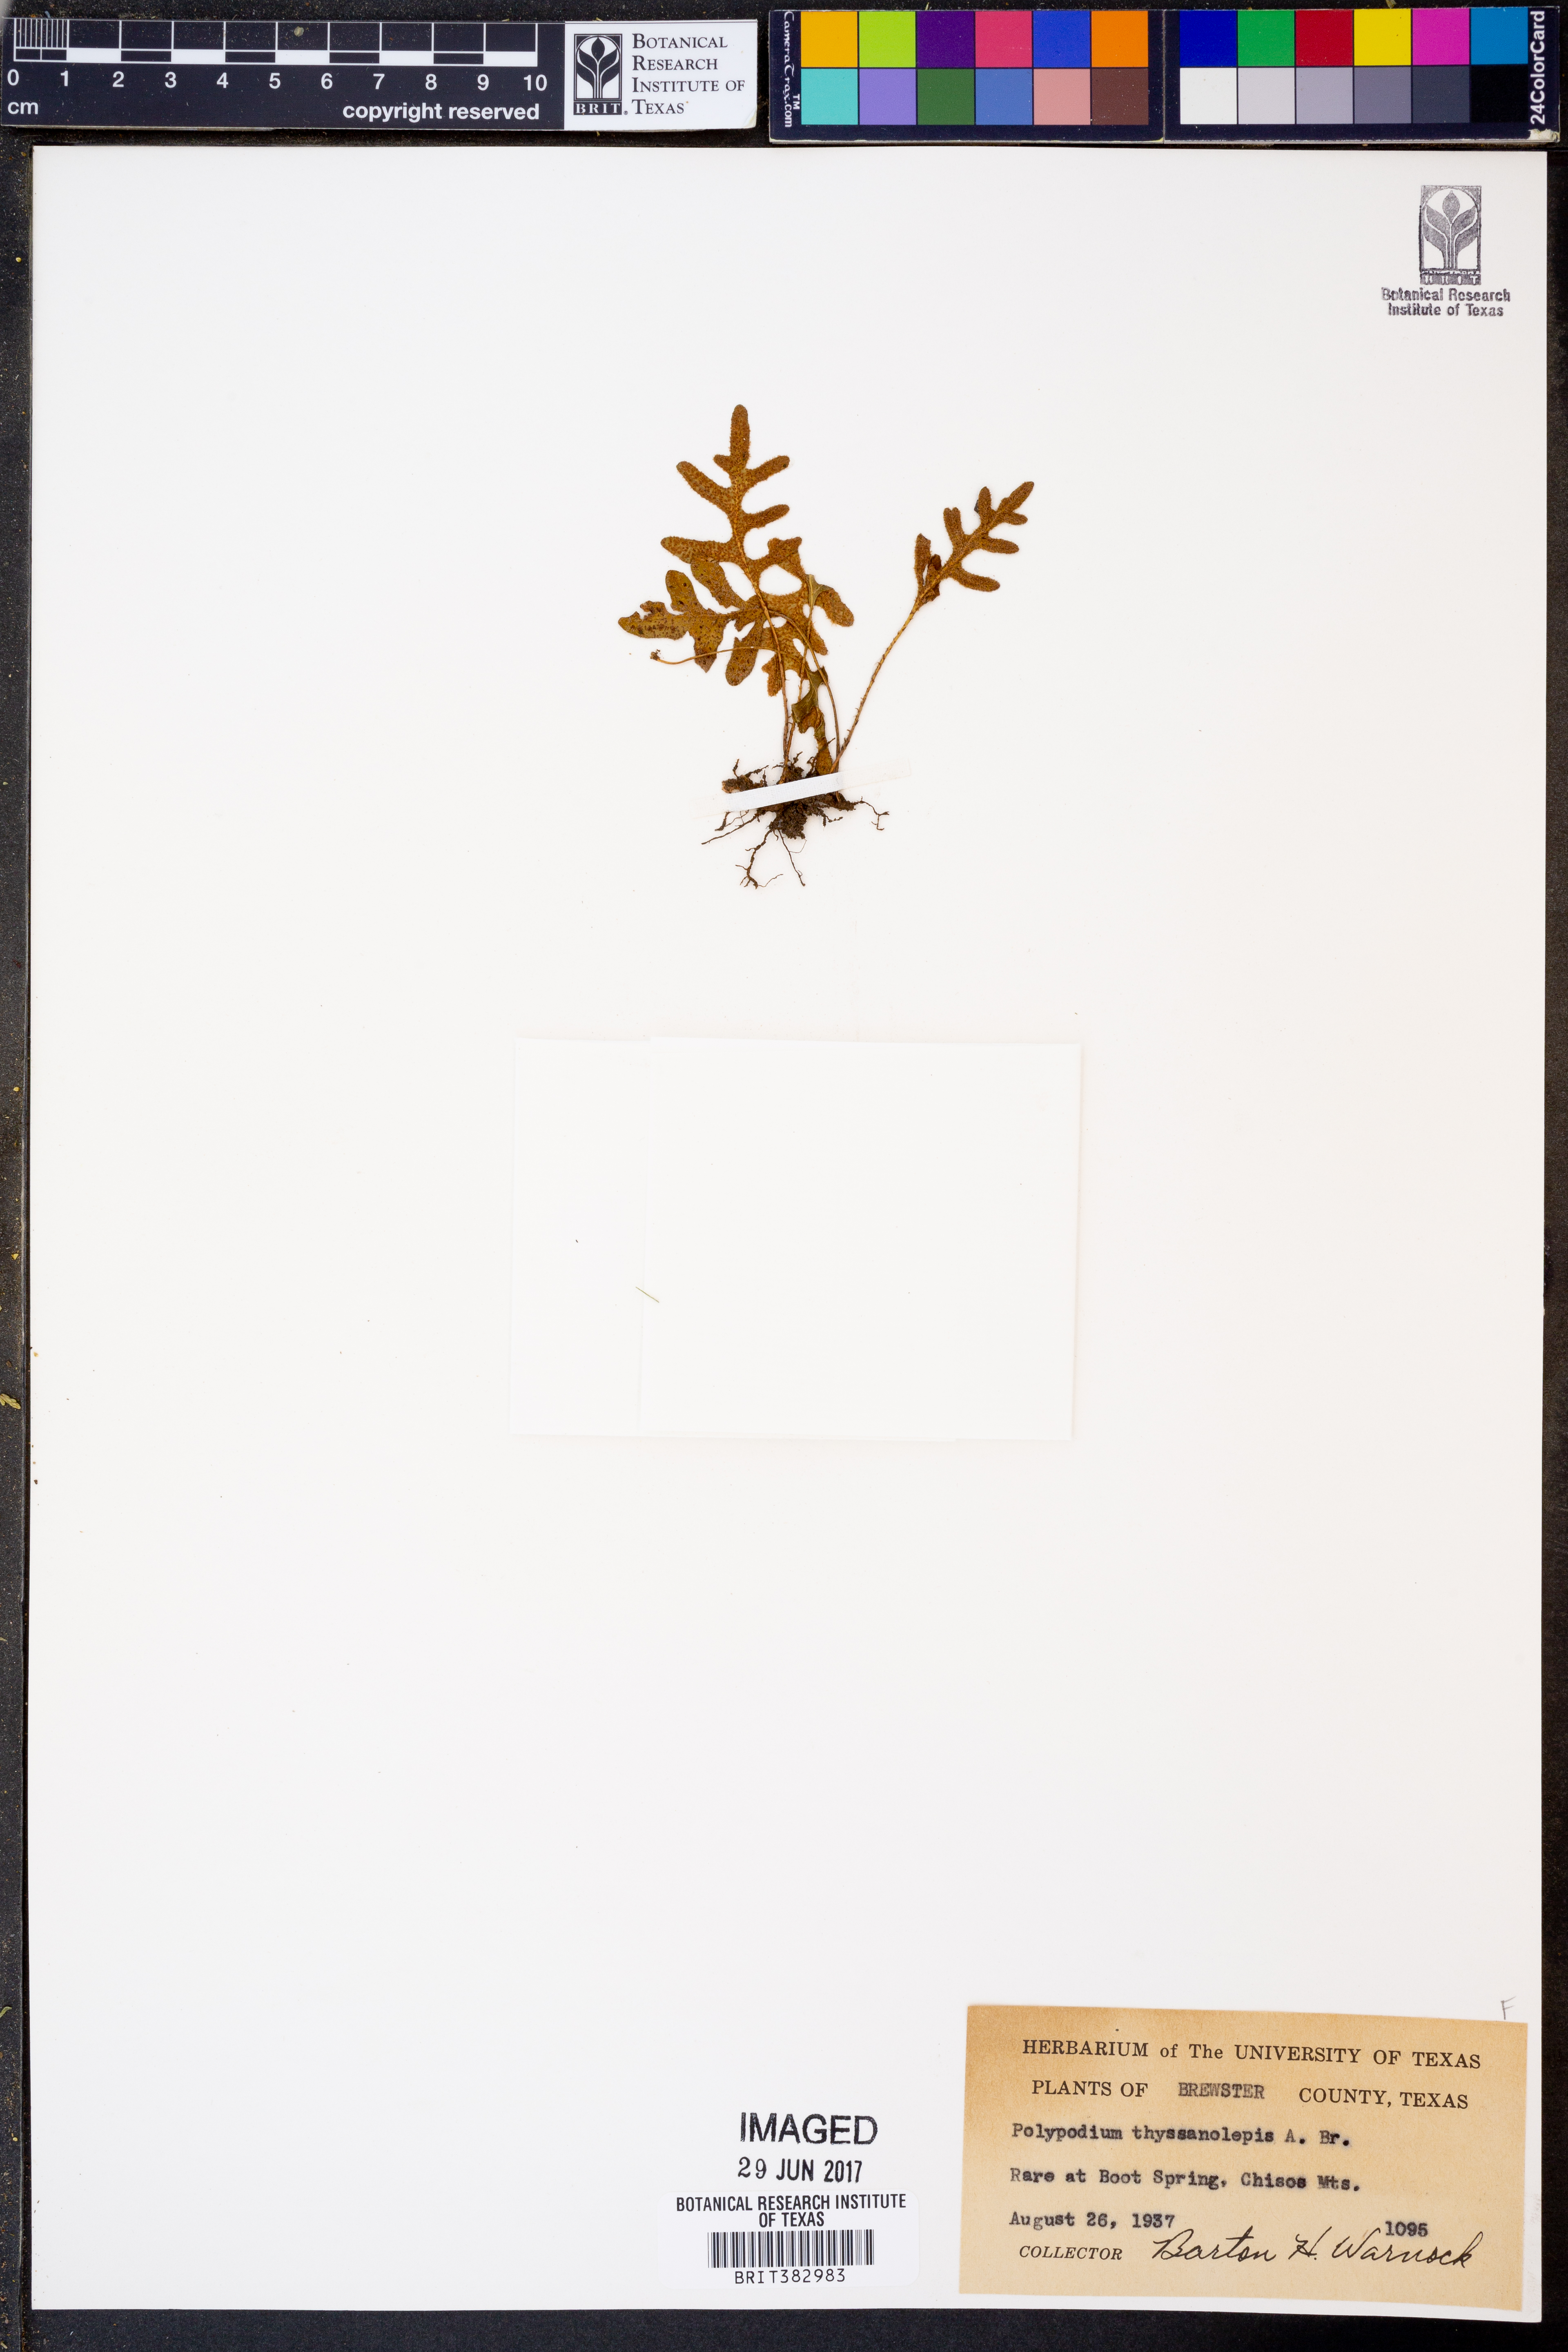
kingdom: Plantae
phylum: Tracheophyta
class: Polypodiopsida
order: Polypodiales
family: Polypodiaceae
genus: Pleopeltis
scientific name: Pleopeltis thyssanolepis
